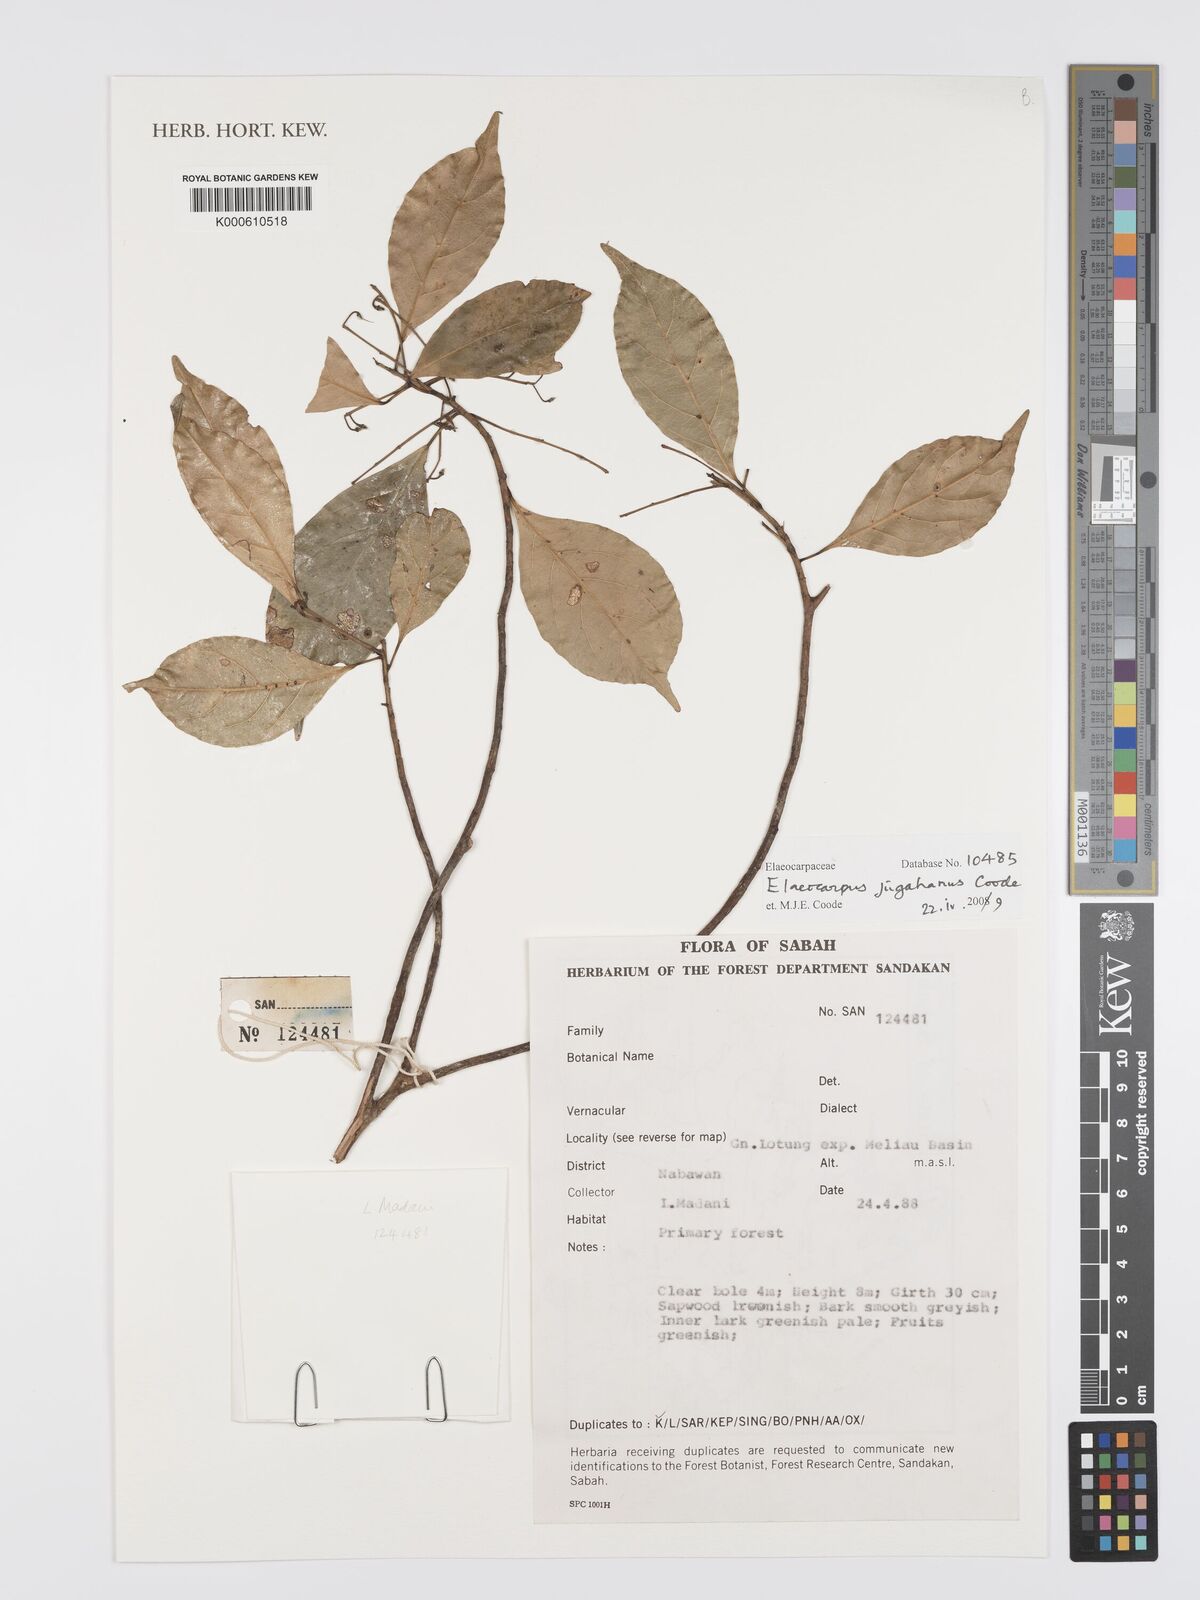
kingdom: Plantae
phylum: Tracheophyta
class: Magnoliopsida
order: Oxalidales
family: Elaeocarpaceae
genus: Elaeocarpus
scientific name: Elaeocarpus jugahanus
